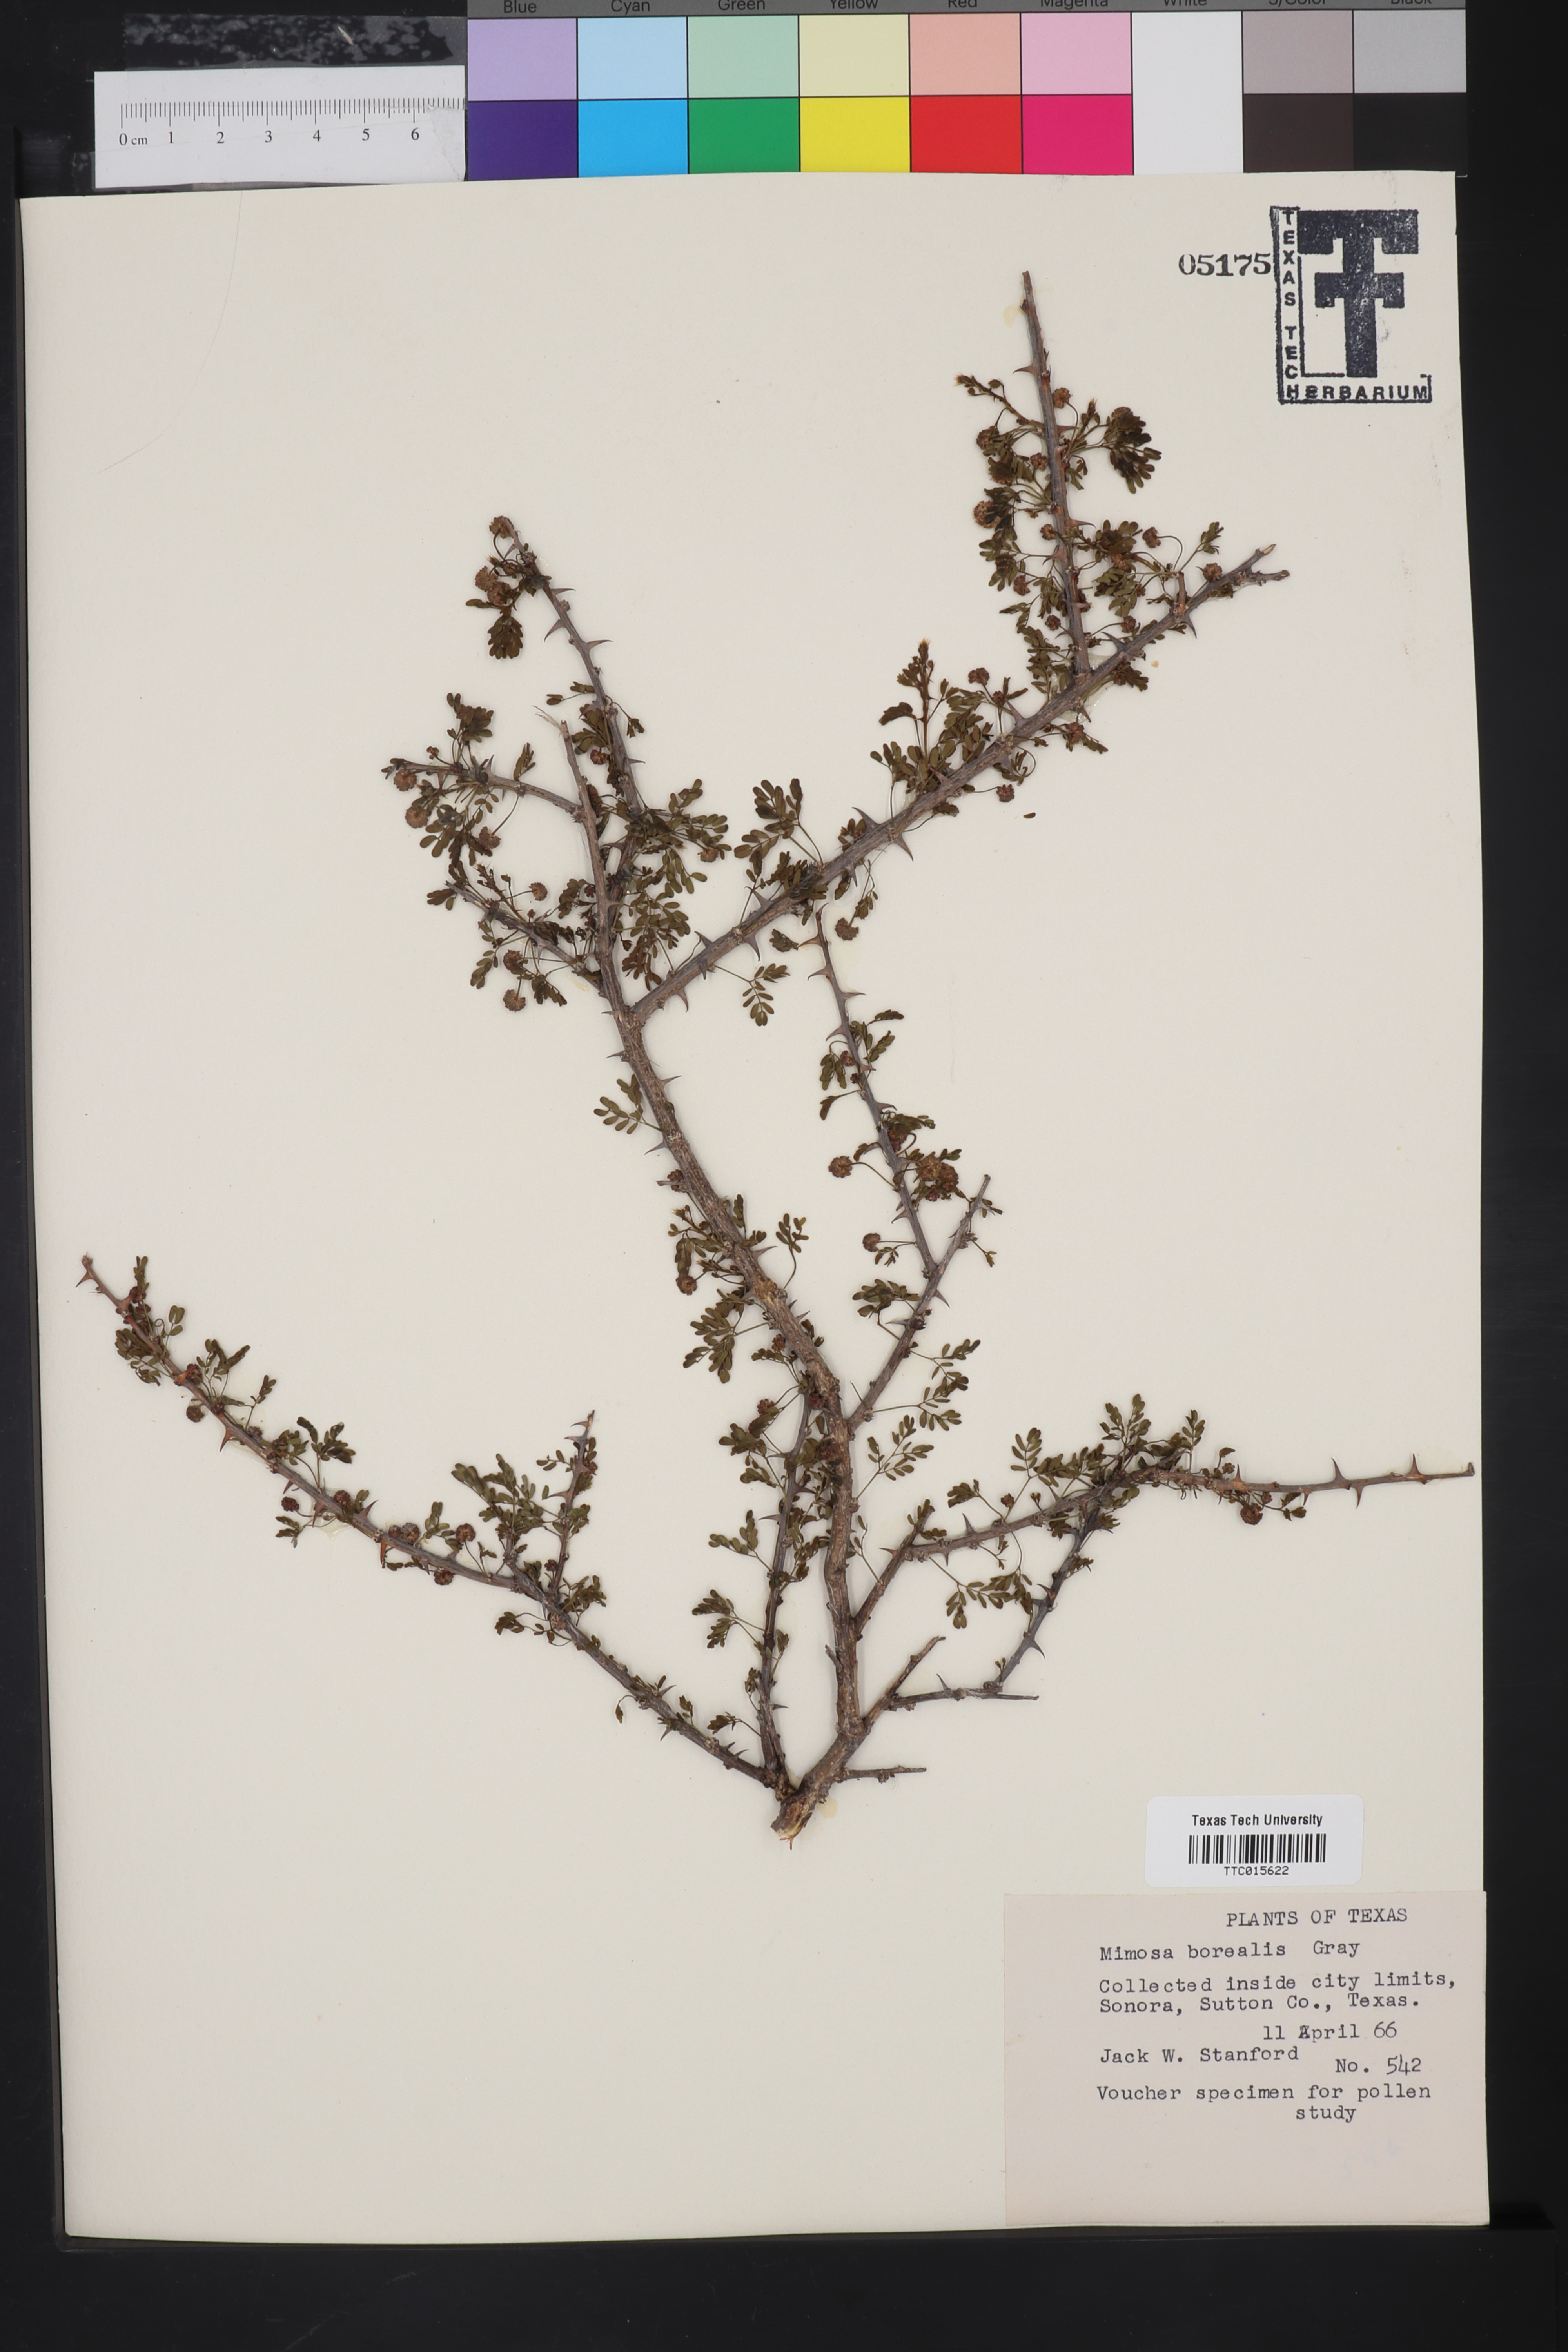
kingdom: Plantae
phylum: Tracheophyta
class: Magnoliopsida
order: Fabales
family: Fabaceae
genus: Mimosa
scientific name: Mimosa borealis
